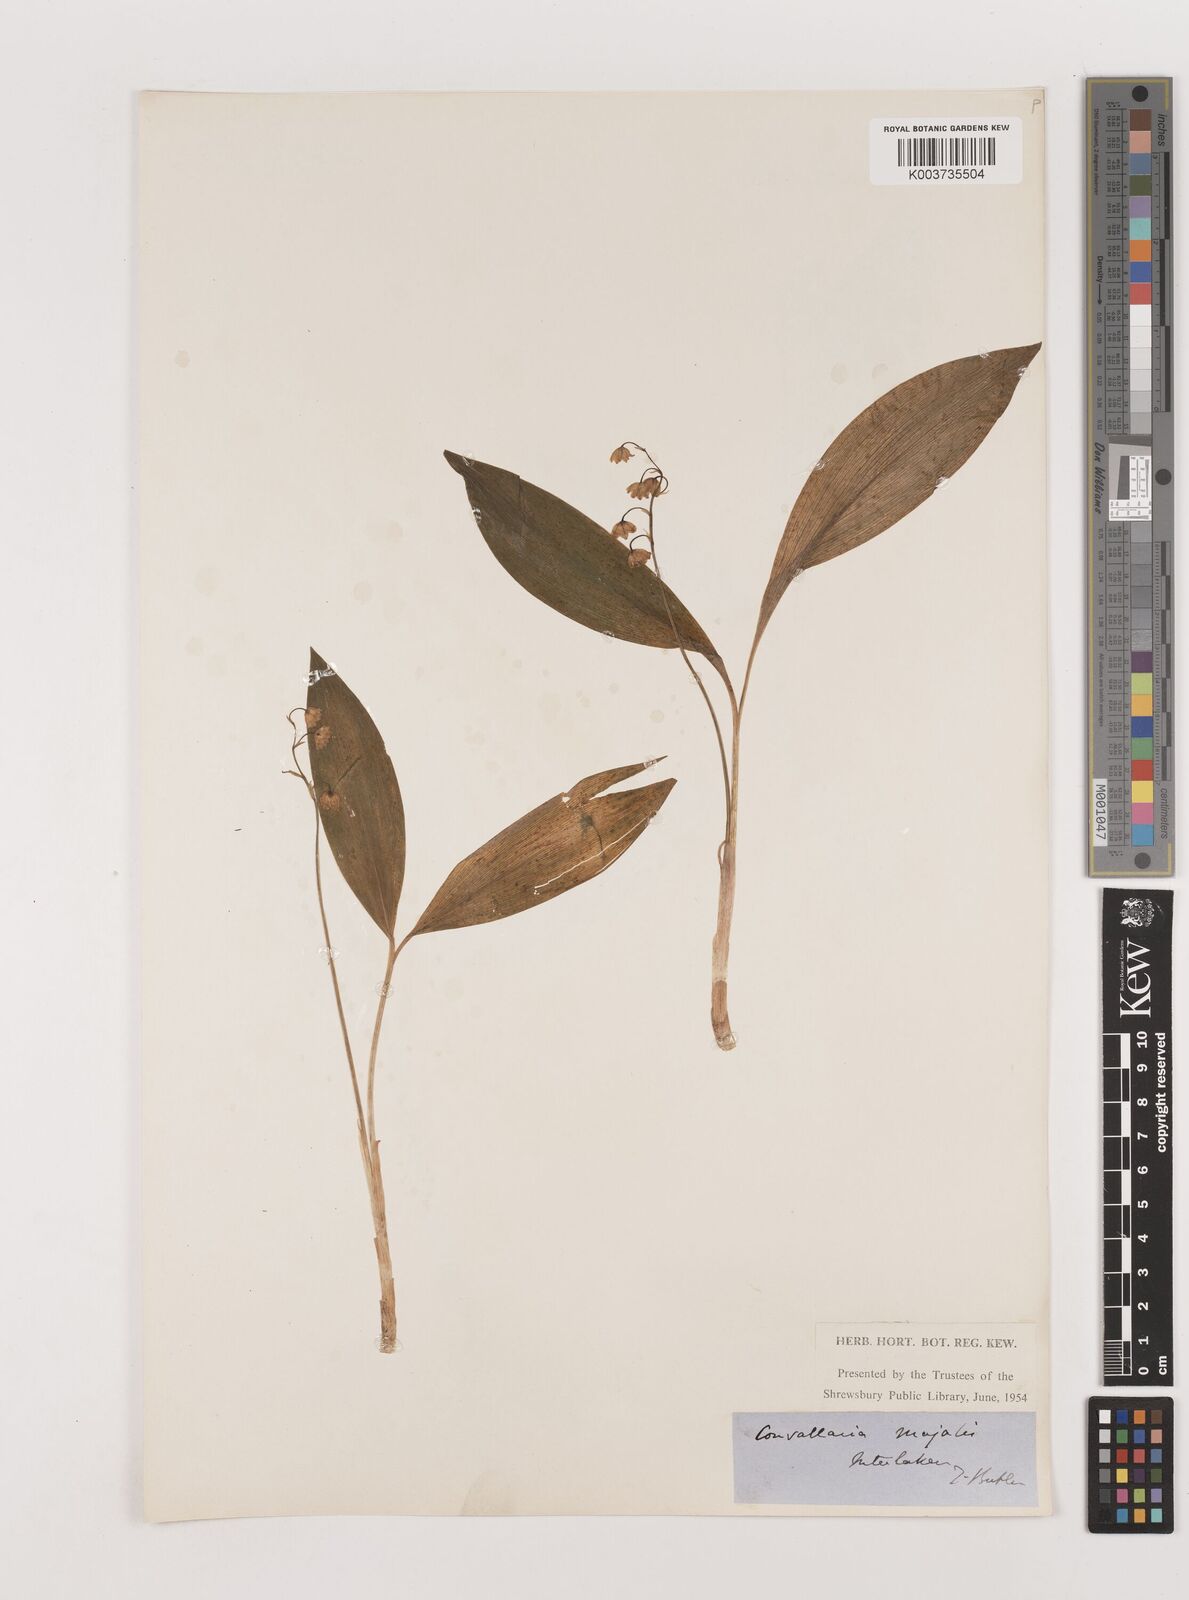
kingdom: Plantae
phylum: Tracheophyta
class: Liliopsida
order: Asparagales
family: Asparagaceae
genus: Convallaria
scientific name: Convallaria majalis
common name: Lily-of-the-valley
